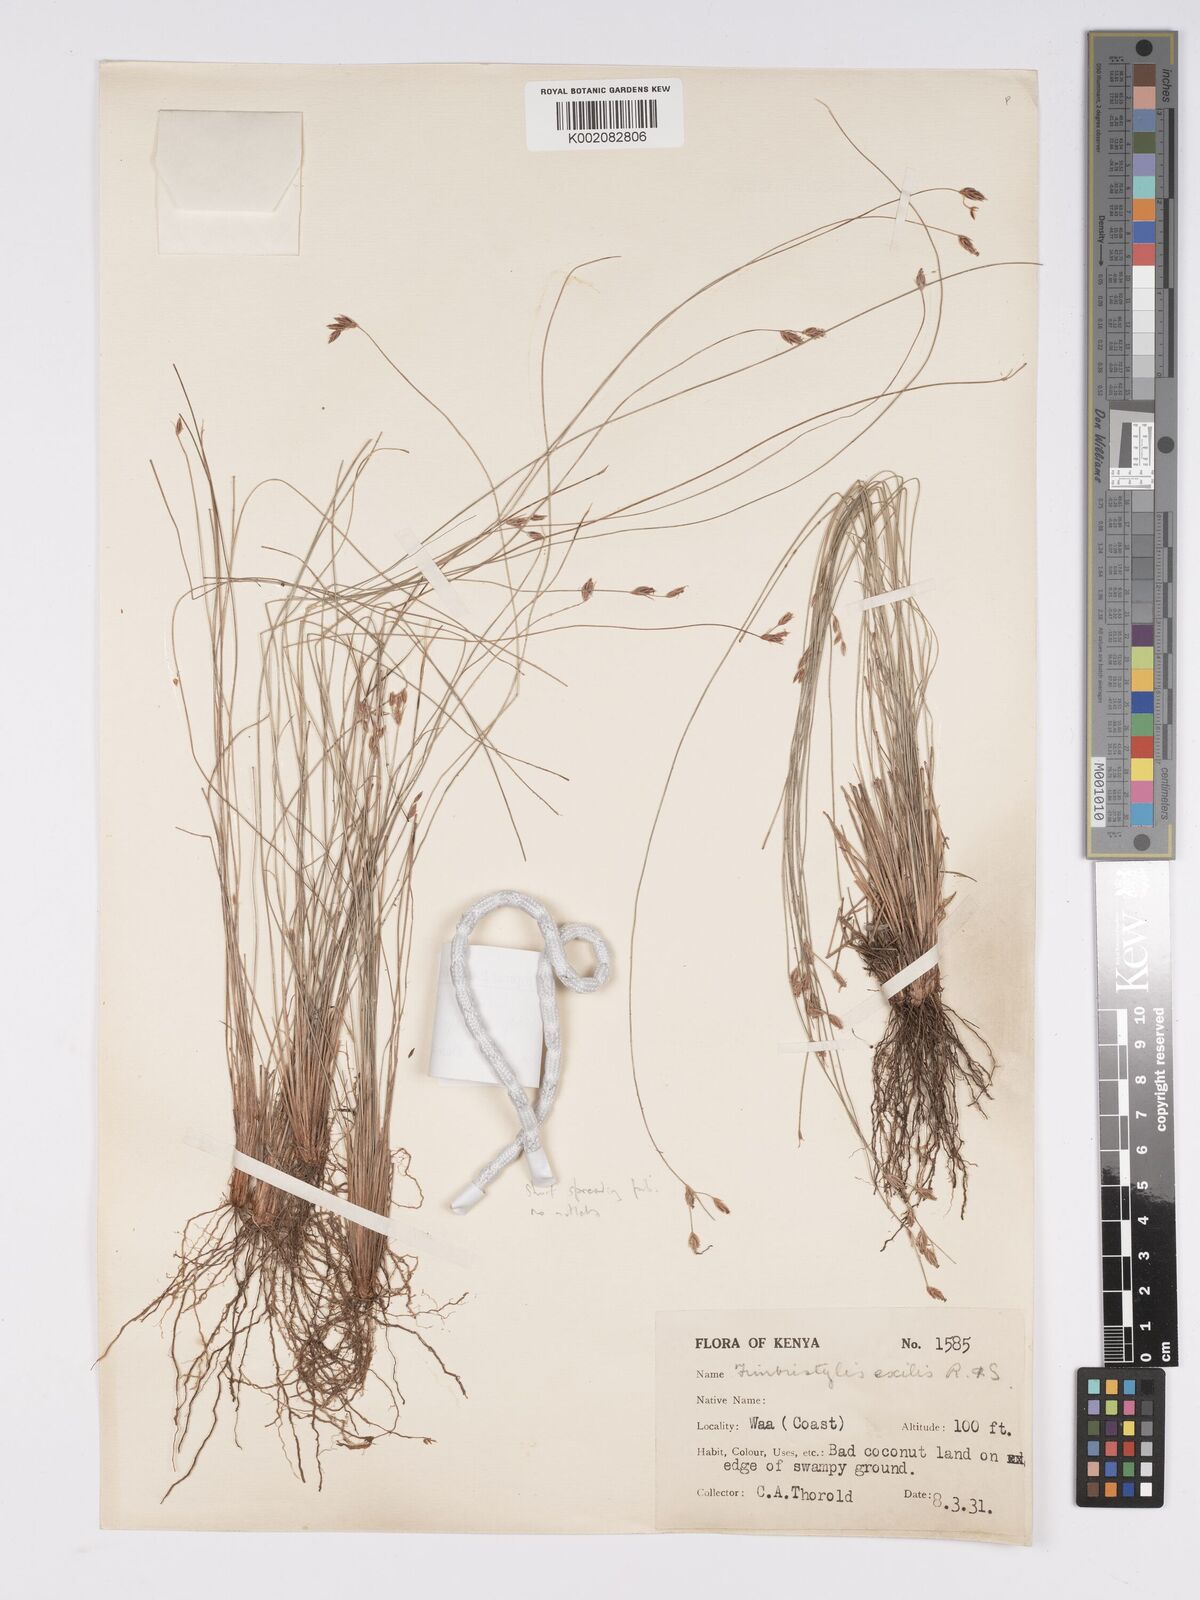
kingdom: Plantae
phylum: Tracheophyta
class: Liliopsida
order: Poales
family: Cyperaceae
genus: Bulbostylis
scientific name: Bulbostylis hispidula
